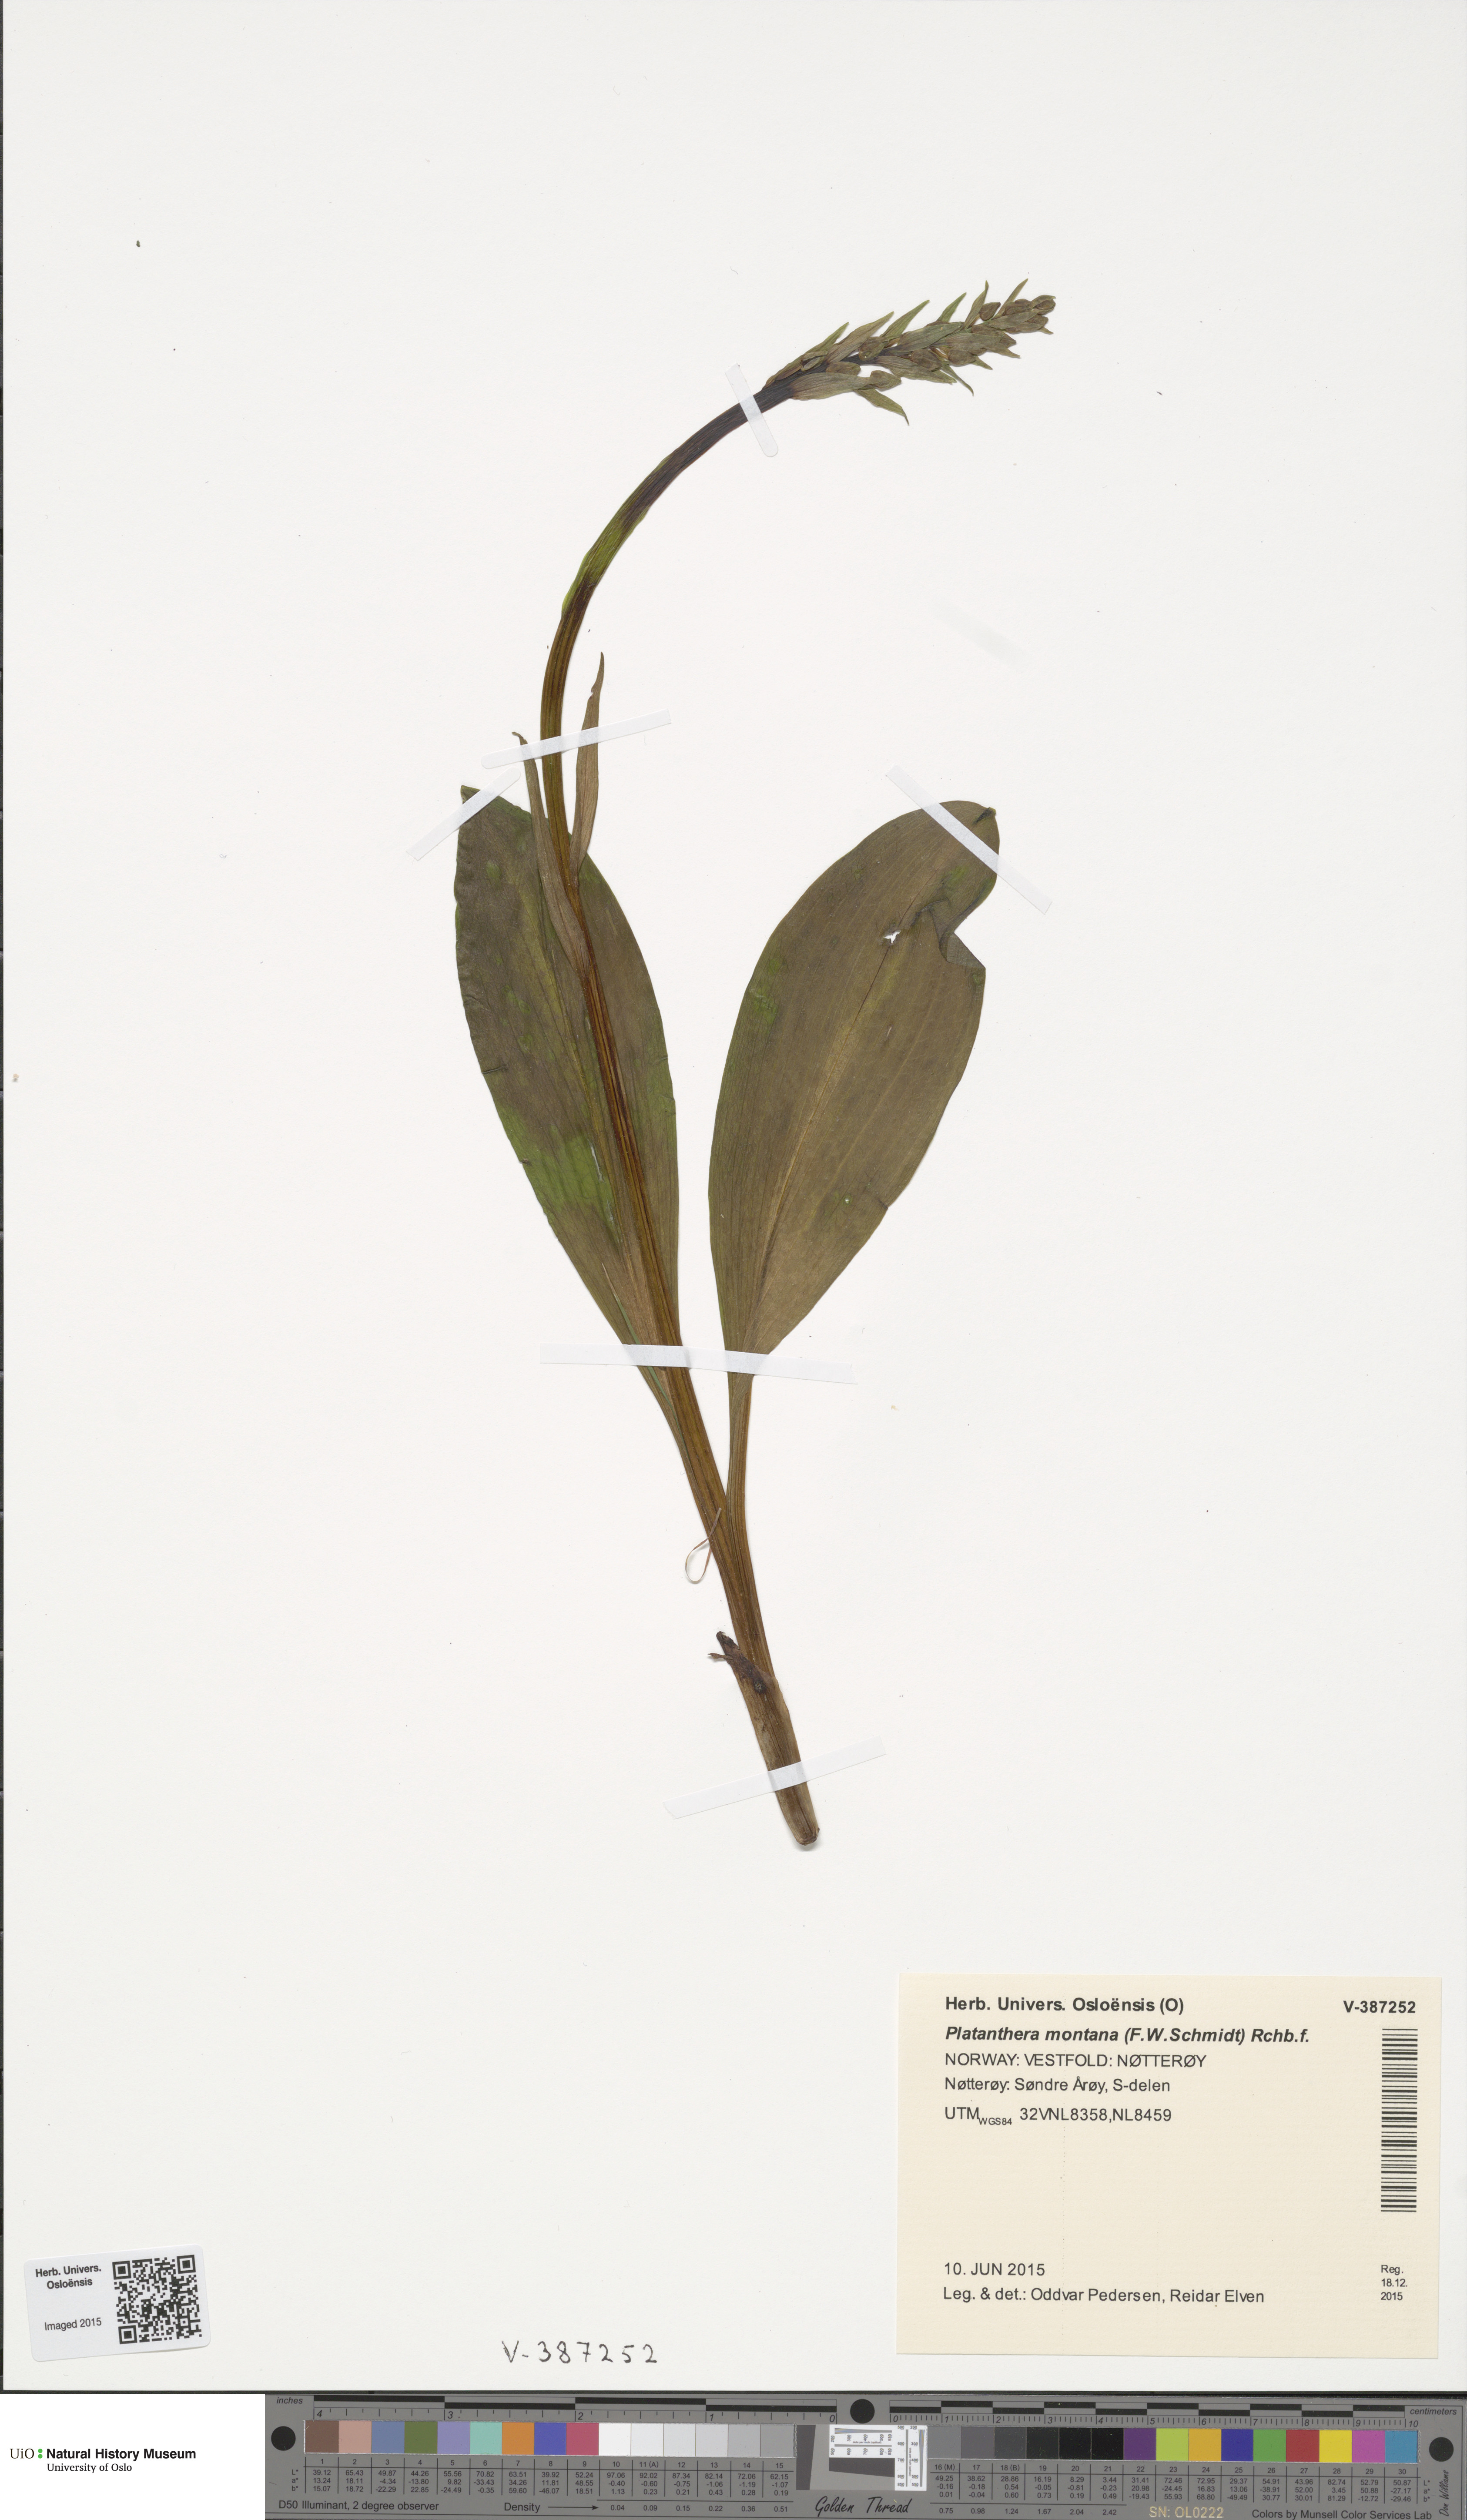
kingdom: Plantae
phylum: Tracheophyta
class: Liliopsida
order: Asparagales
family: Orchidaceae
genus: Platanthera
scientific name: Platanthera chlorantha
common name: Greater butterfly-orchid
